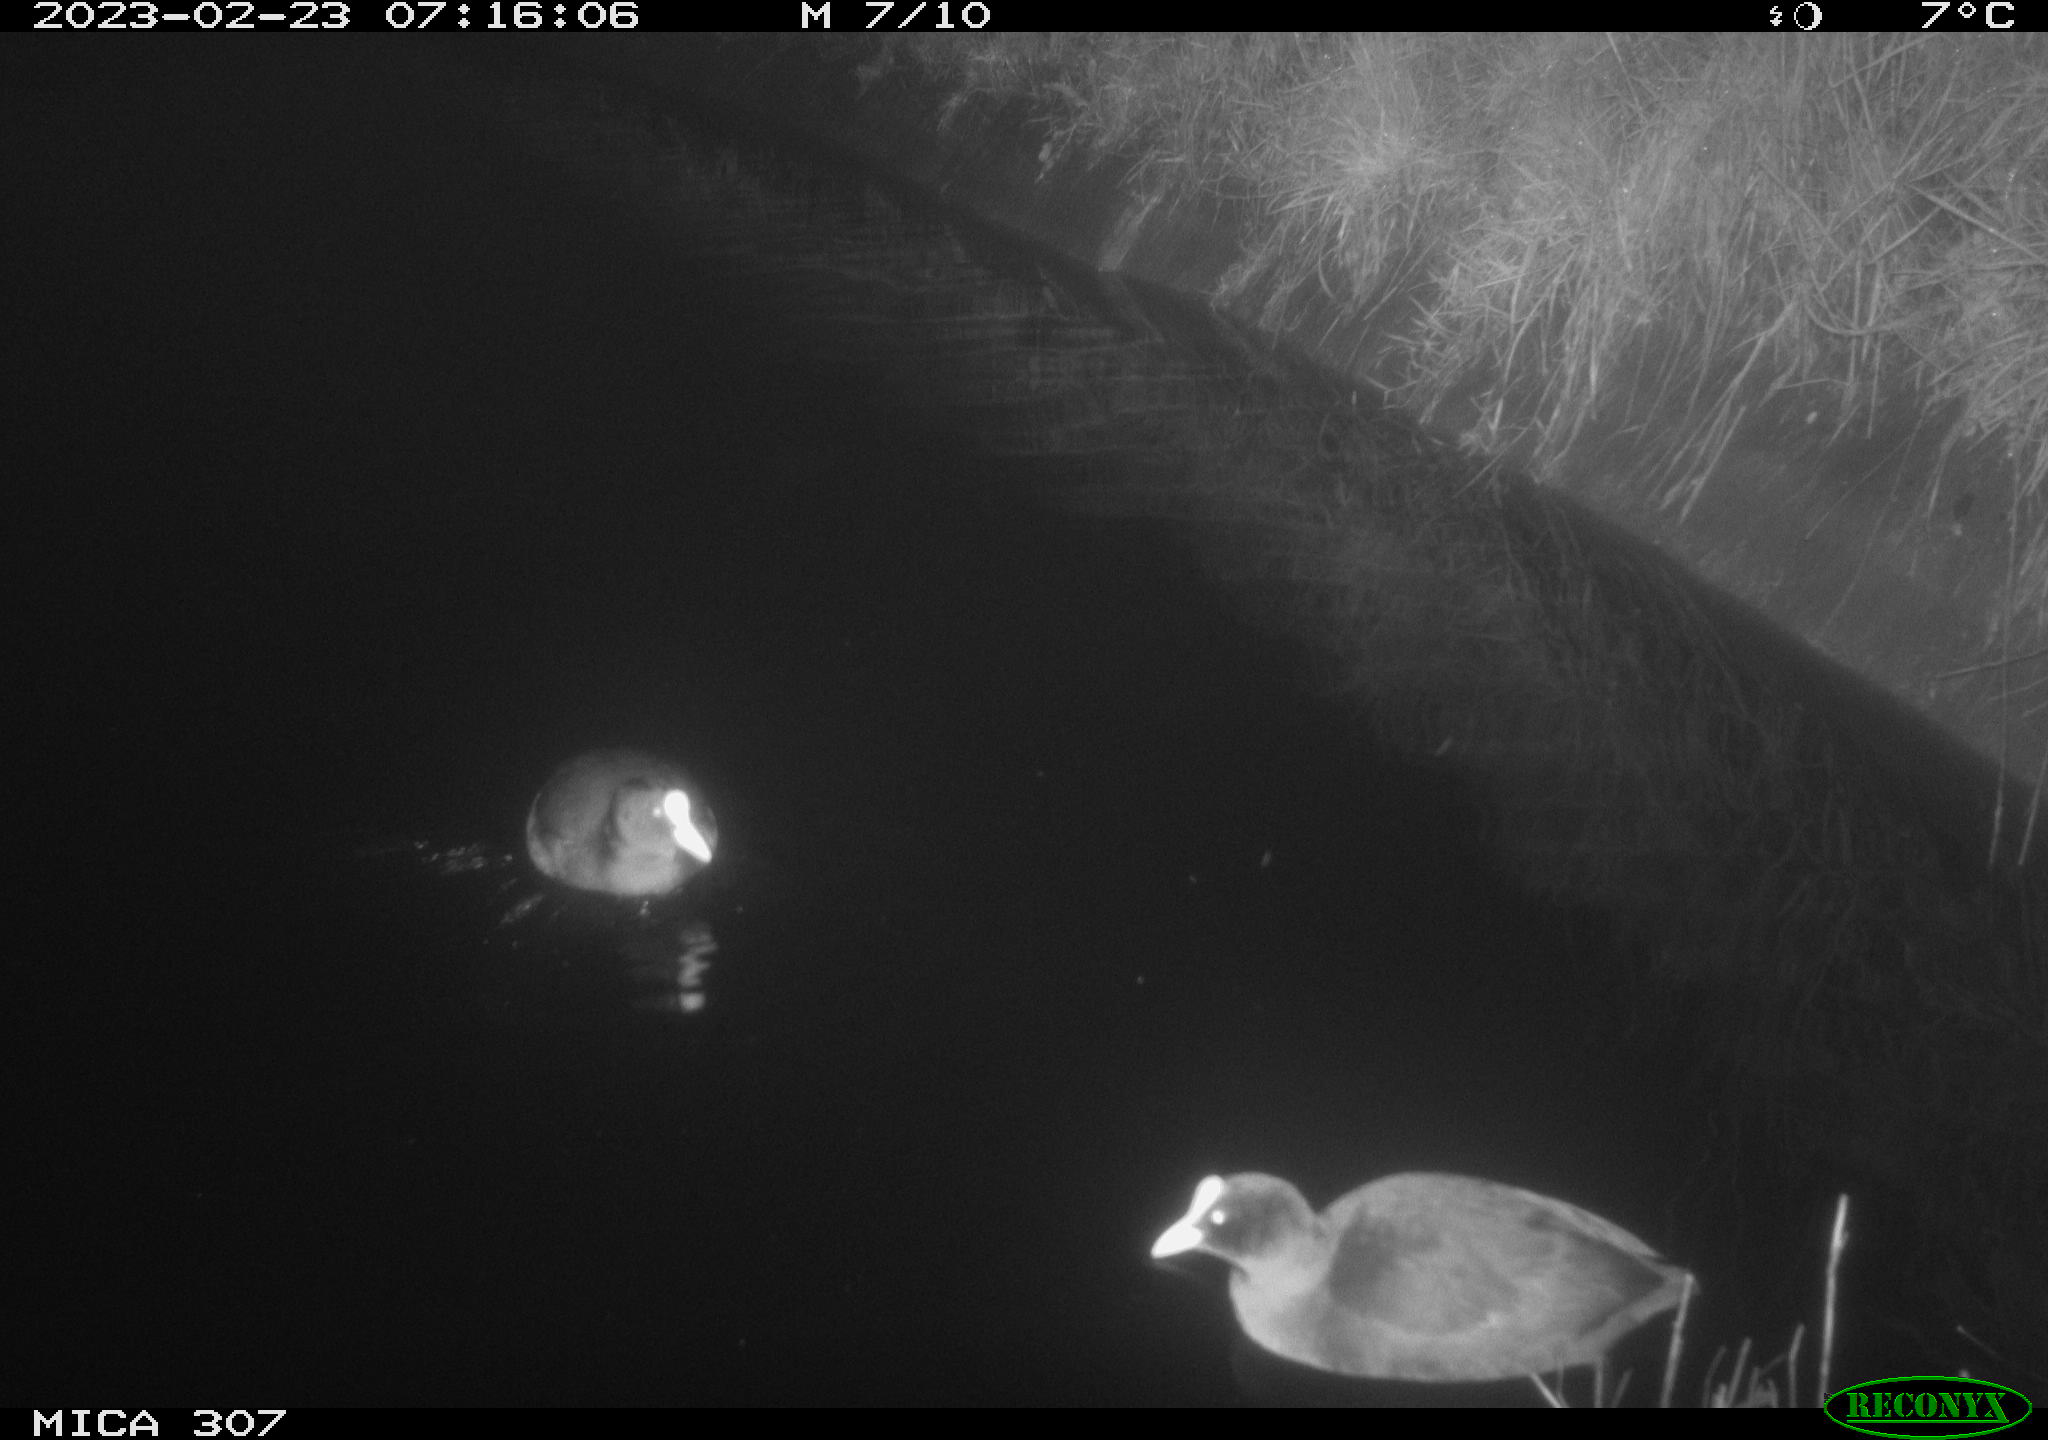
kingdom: Animalia
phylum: Chordata
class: Aves
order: Gruiformes
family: Rallidae
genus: Fulica
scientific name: Fulica atra
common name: Eurasian coot
